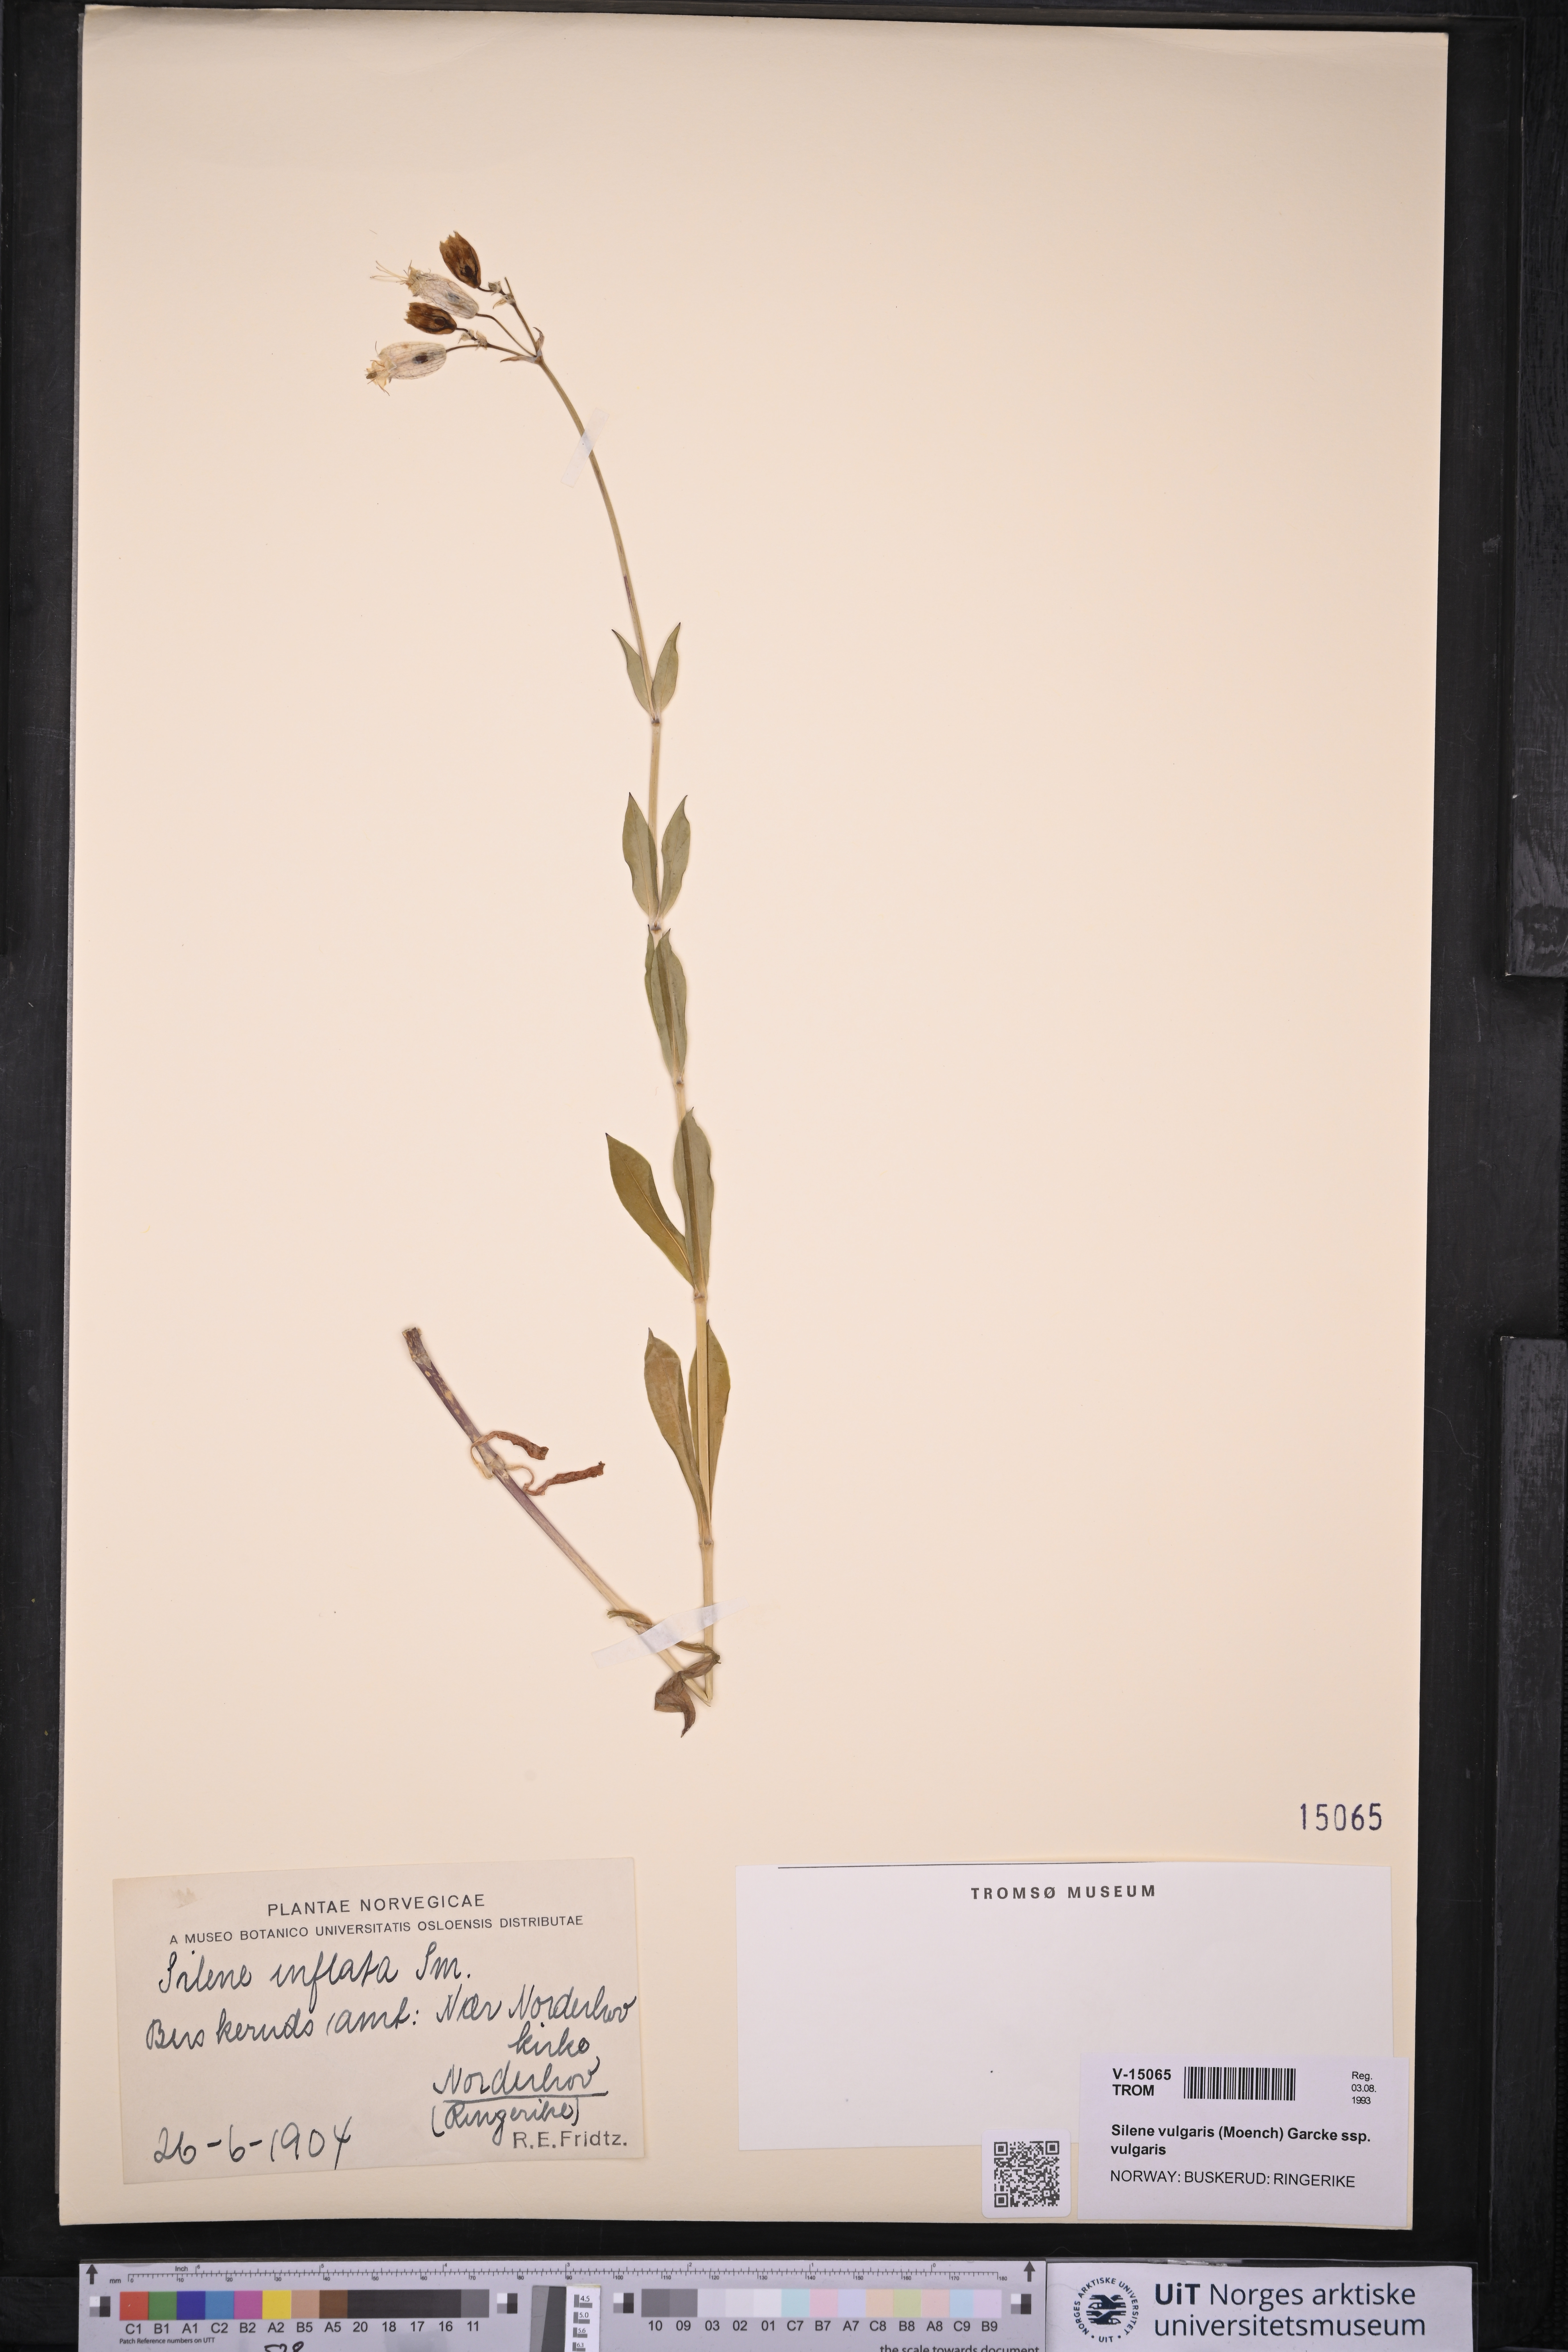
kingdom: Plantae
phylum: Tracheophyta
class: Magnoliopsida
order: Caryophyllales
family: Caryophyllaceae
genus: Silene
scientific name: Silene vulgaris
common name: Bladder campion
